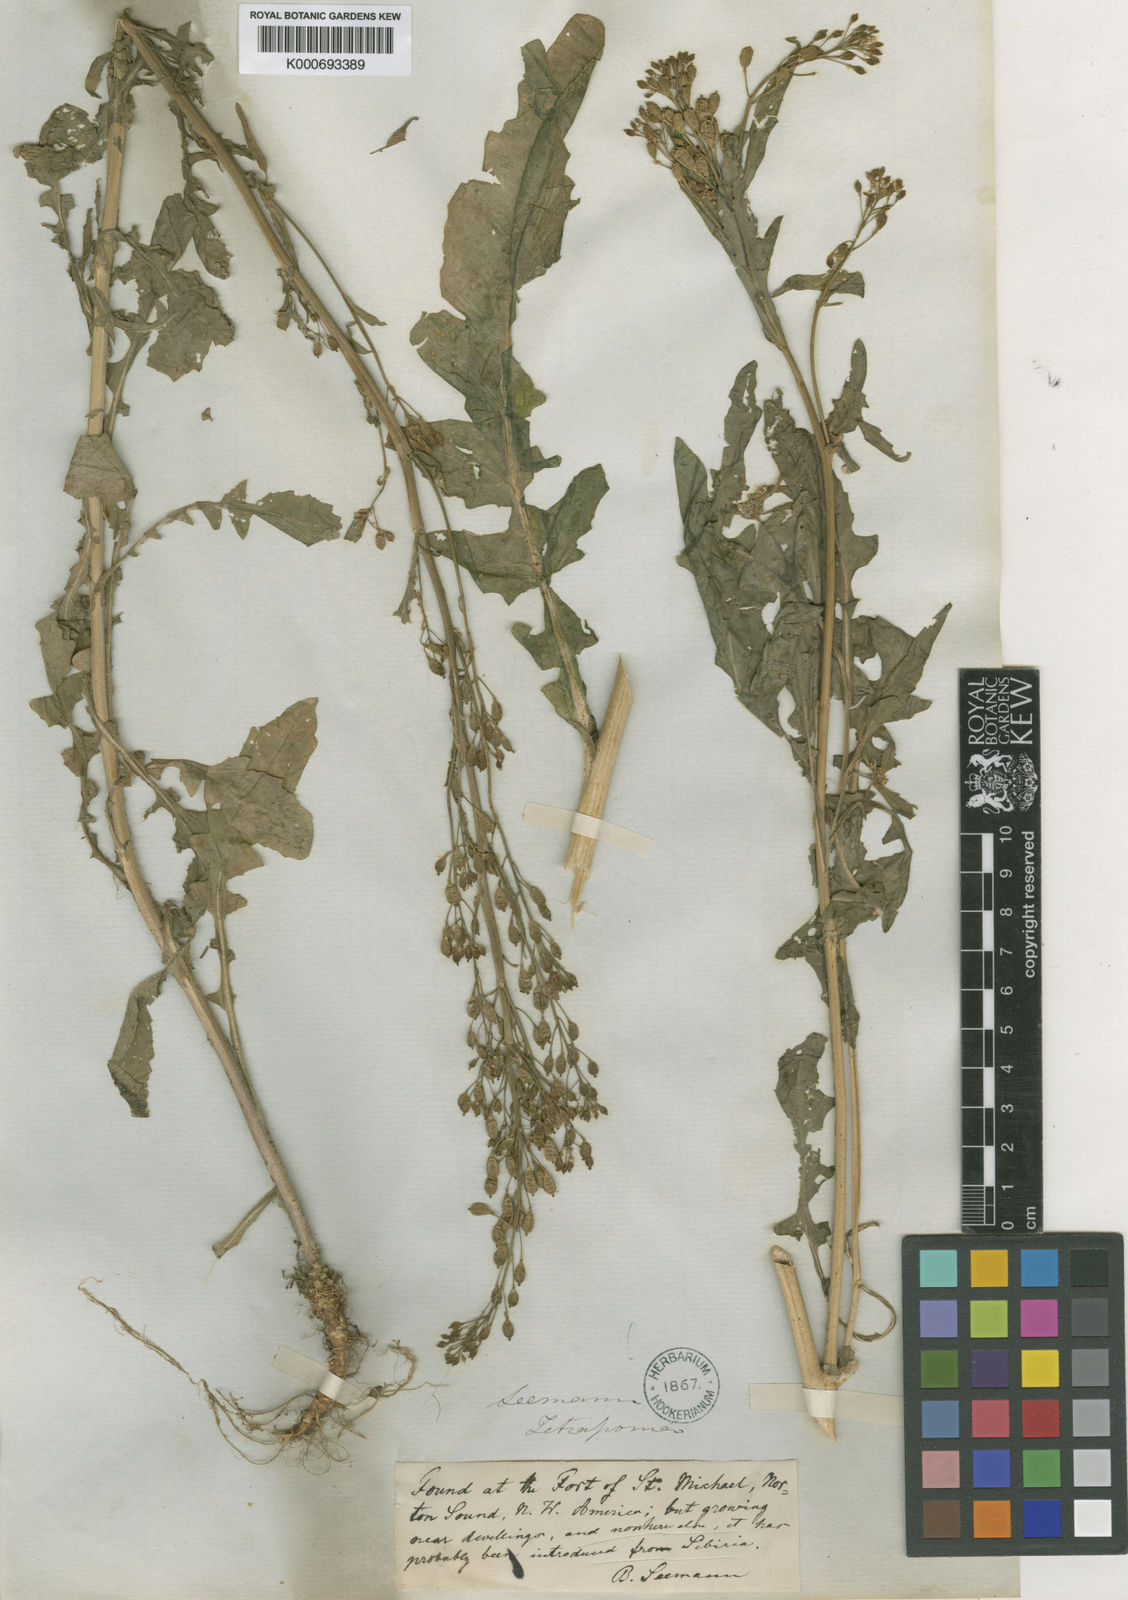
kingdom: Plantae
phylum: Tracheophyta
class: Magnoliopsida
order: Brassicales
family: Brassicaceae
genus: Rorippa
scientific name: Rorippa
